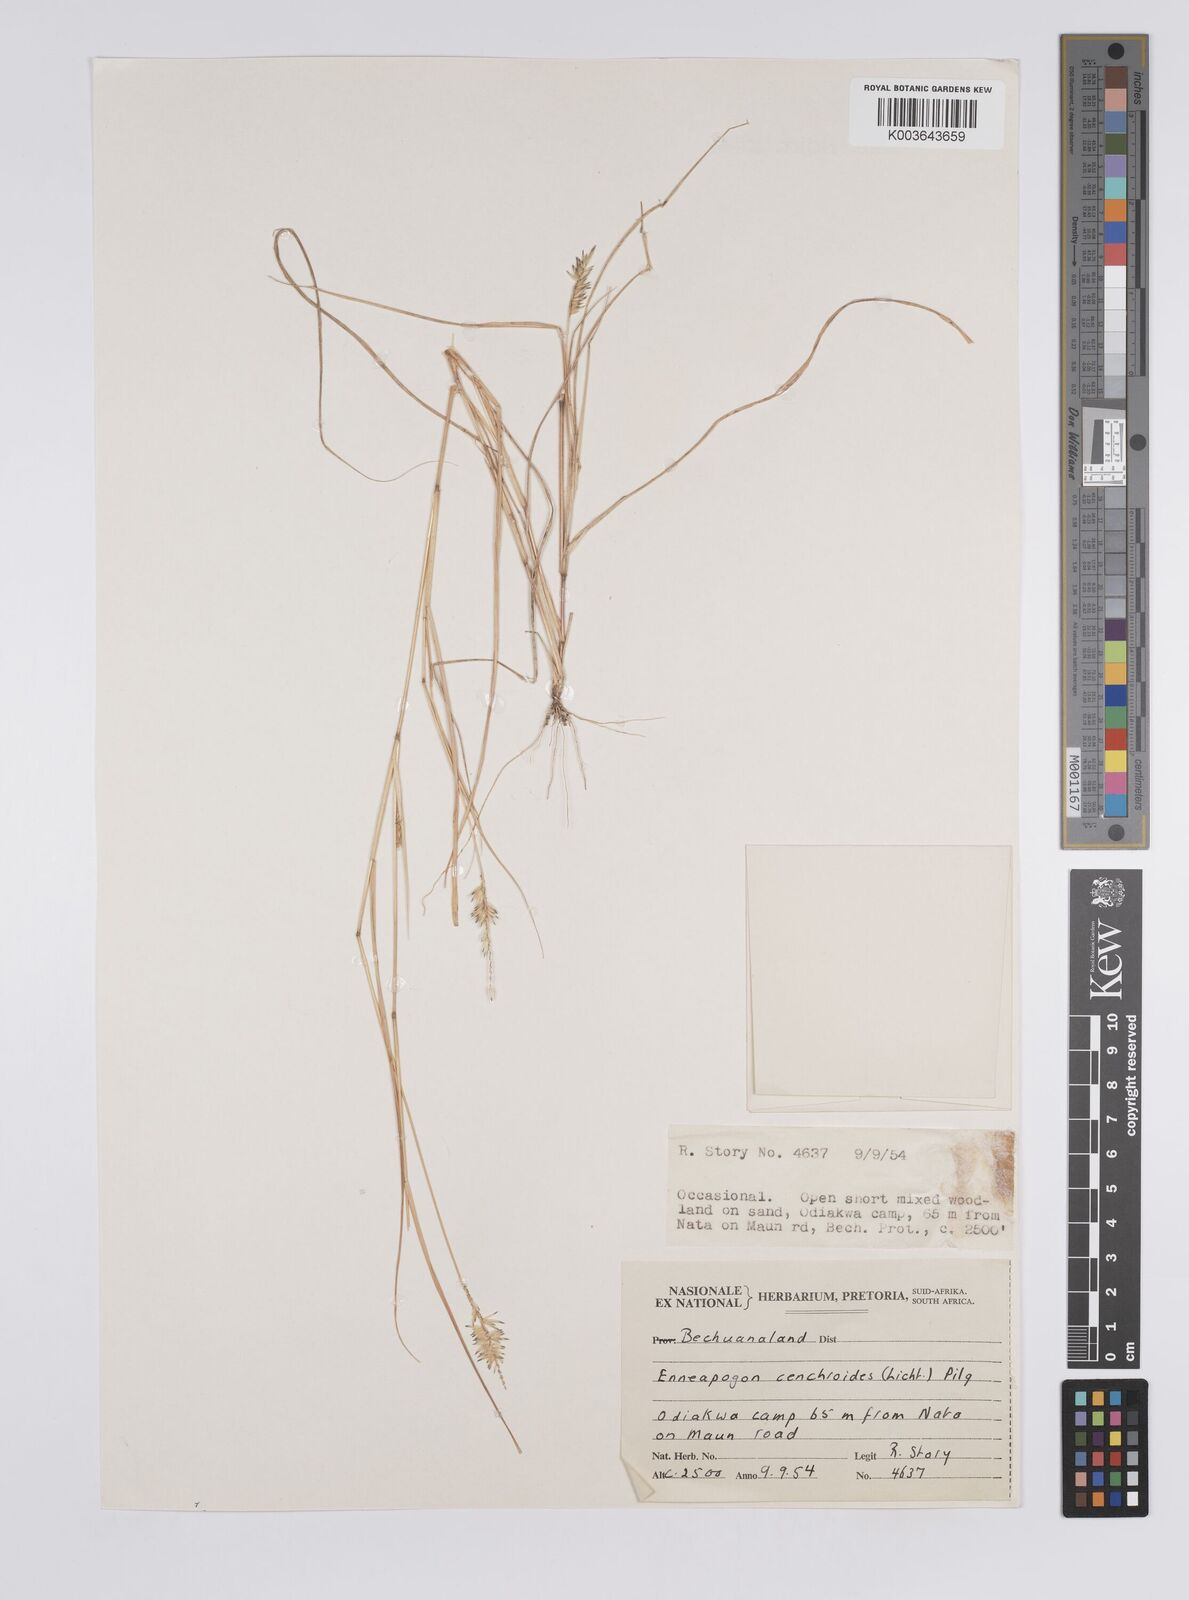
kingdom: Plantae
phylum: Tracheophyta
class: Liliopsida
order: Poales
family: Poaceae
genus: Enneapogon
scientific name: Enneapogon cenchroides
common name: Soft feather pappusgrass
